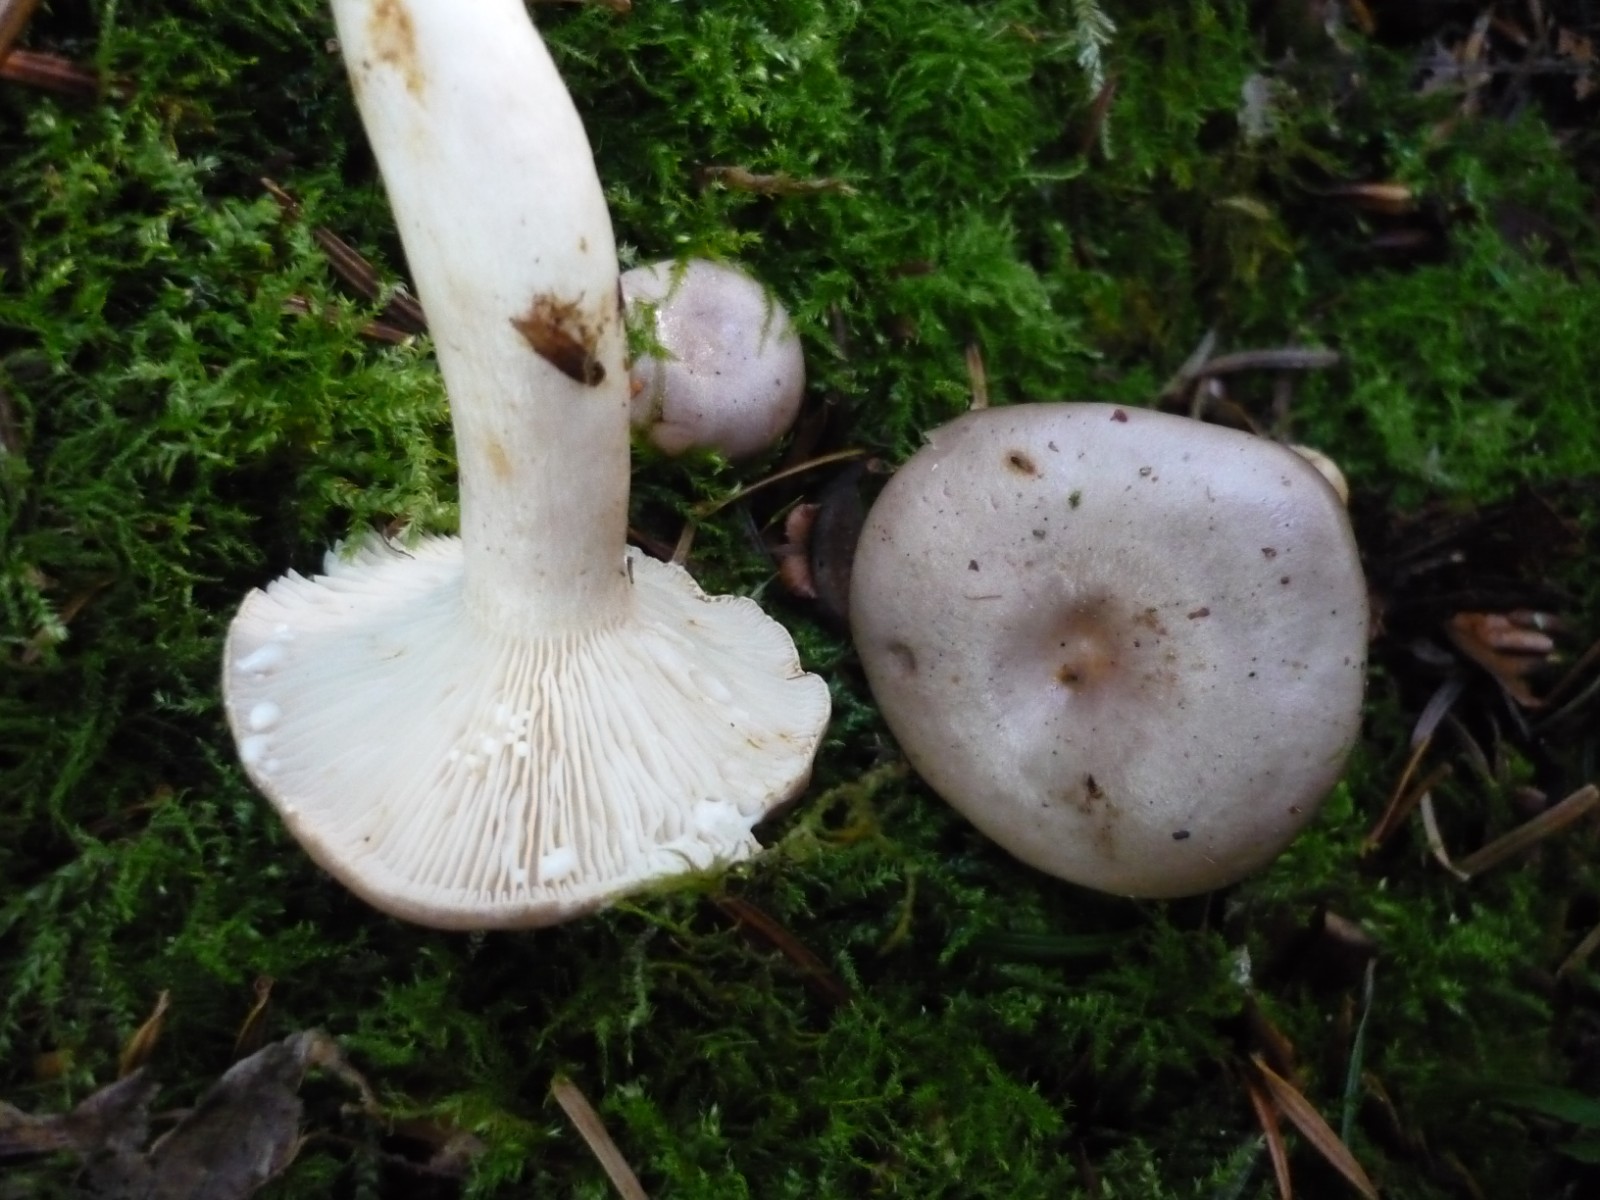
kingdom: Fungi
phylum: Basidiomycota
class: Agaricomycetes
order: Russulales
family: Russulaceae
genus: Lactarius
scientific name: Lactarius albocarneus
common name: ædelgran-mælkehat
